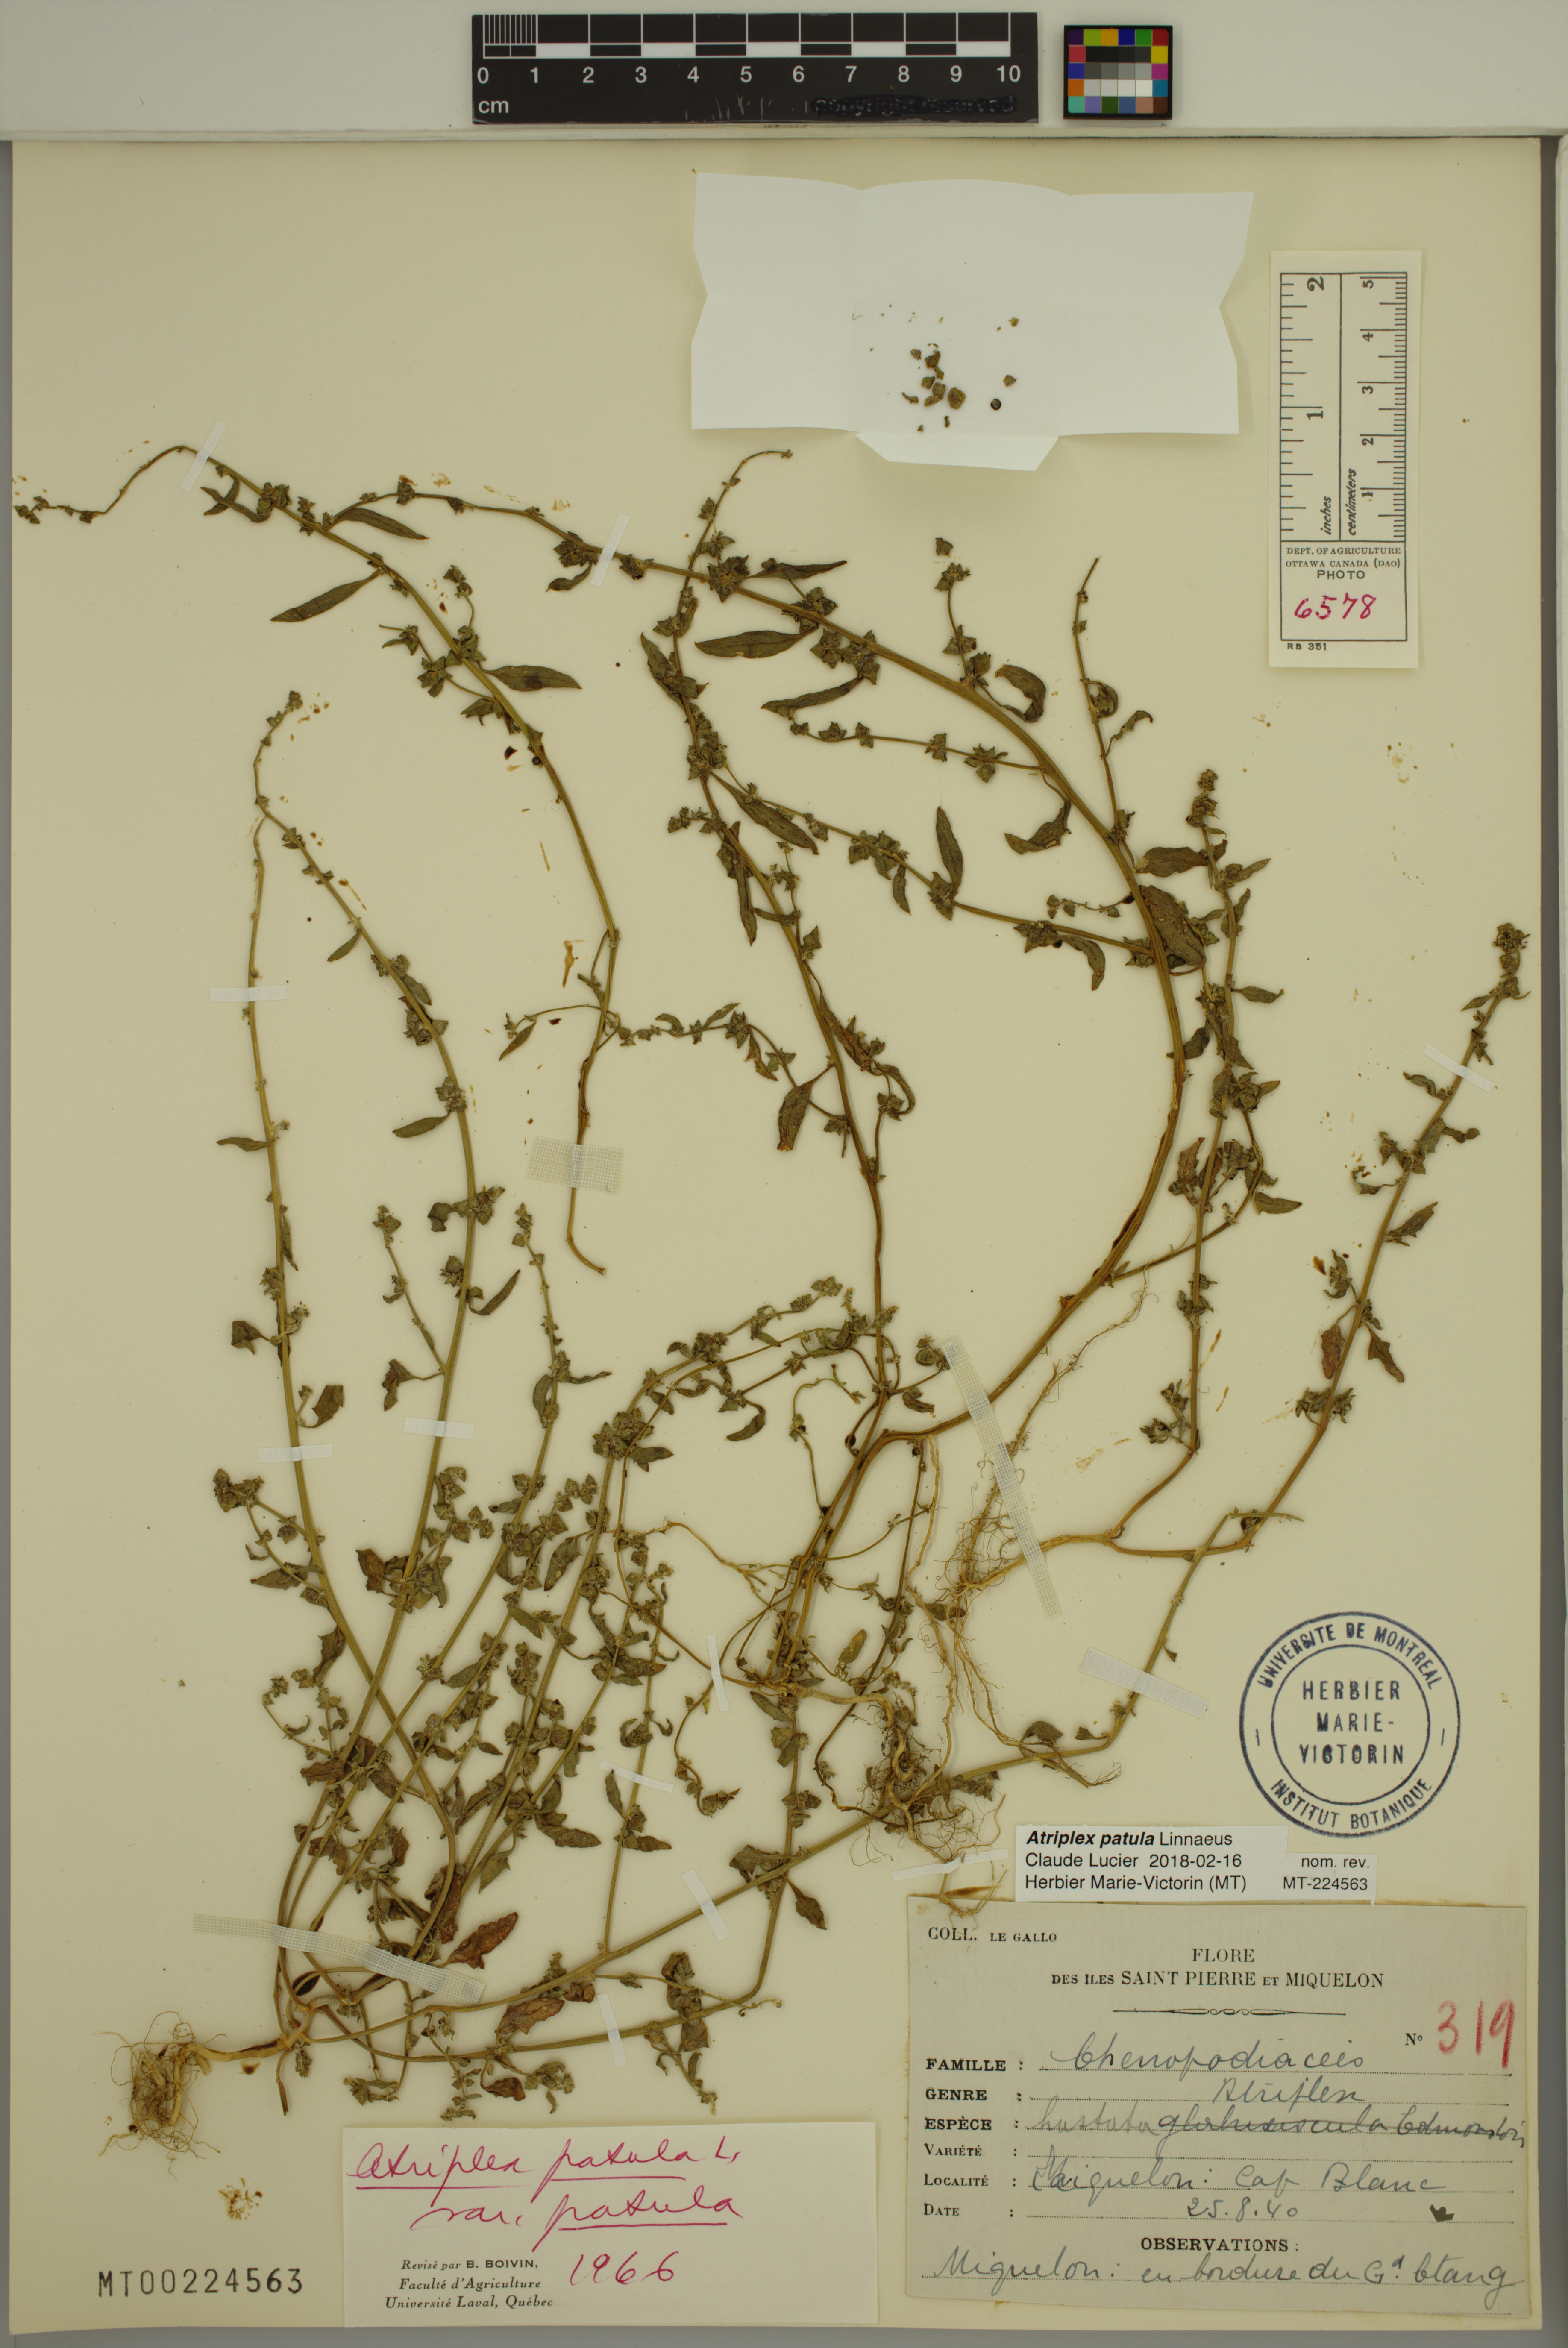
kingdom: Plantae
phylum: Tracheophyta
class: Magnoliopsida
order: Caryophyllales
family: Amaranthaceae
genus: Atriplex
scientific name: Atriplex patula
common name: Common orache
